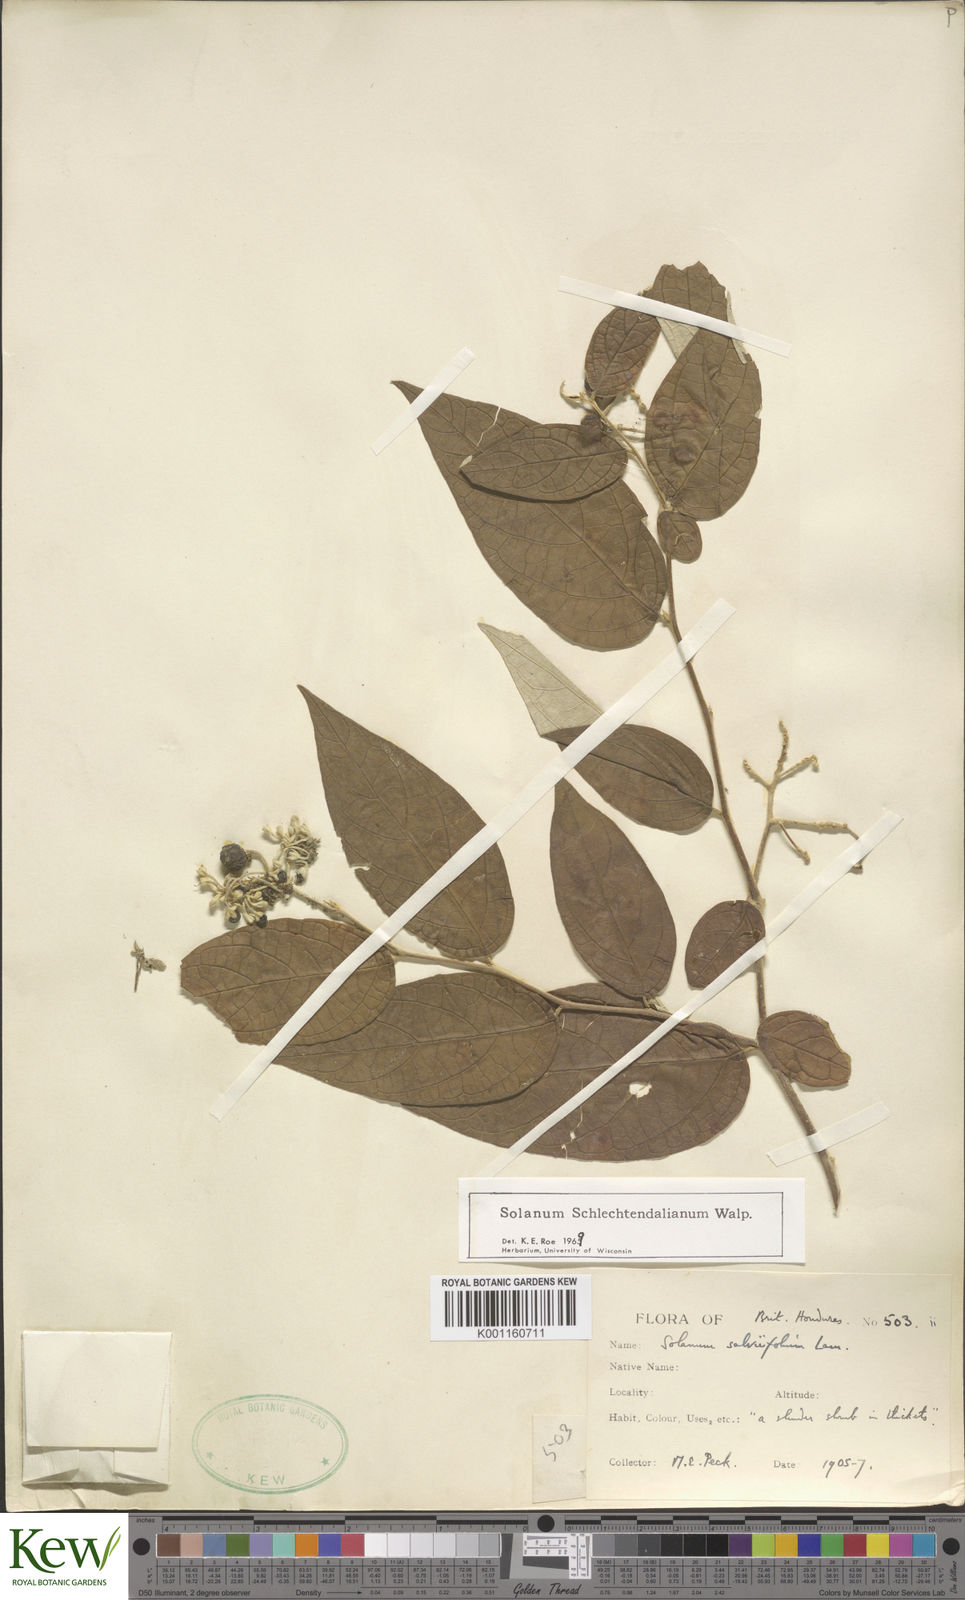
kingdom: Plantae
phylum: Tracheophyta
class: Magnoliopsida
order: Solanales
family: Solanaceae
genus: Solanum
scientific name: Solanum
